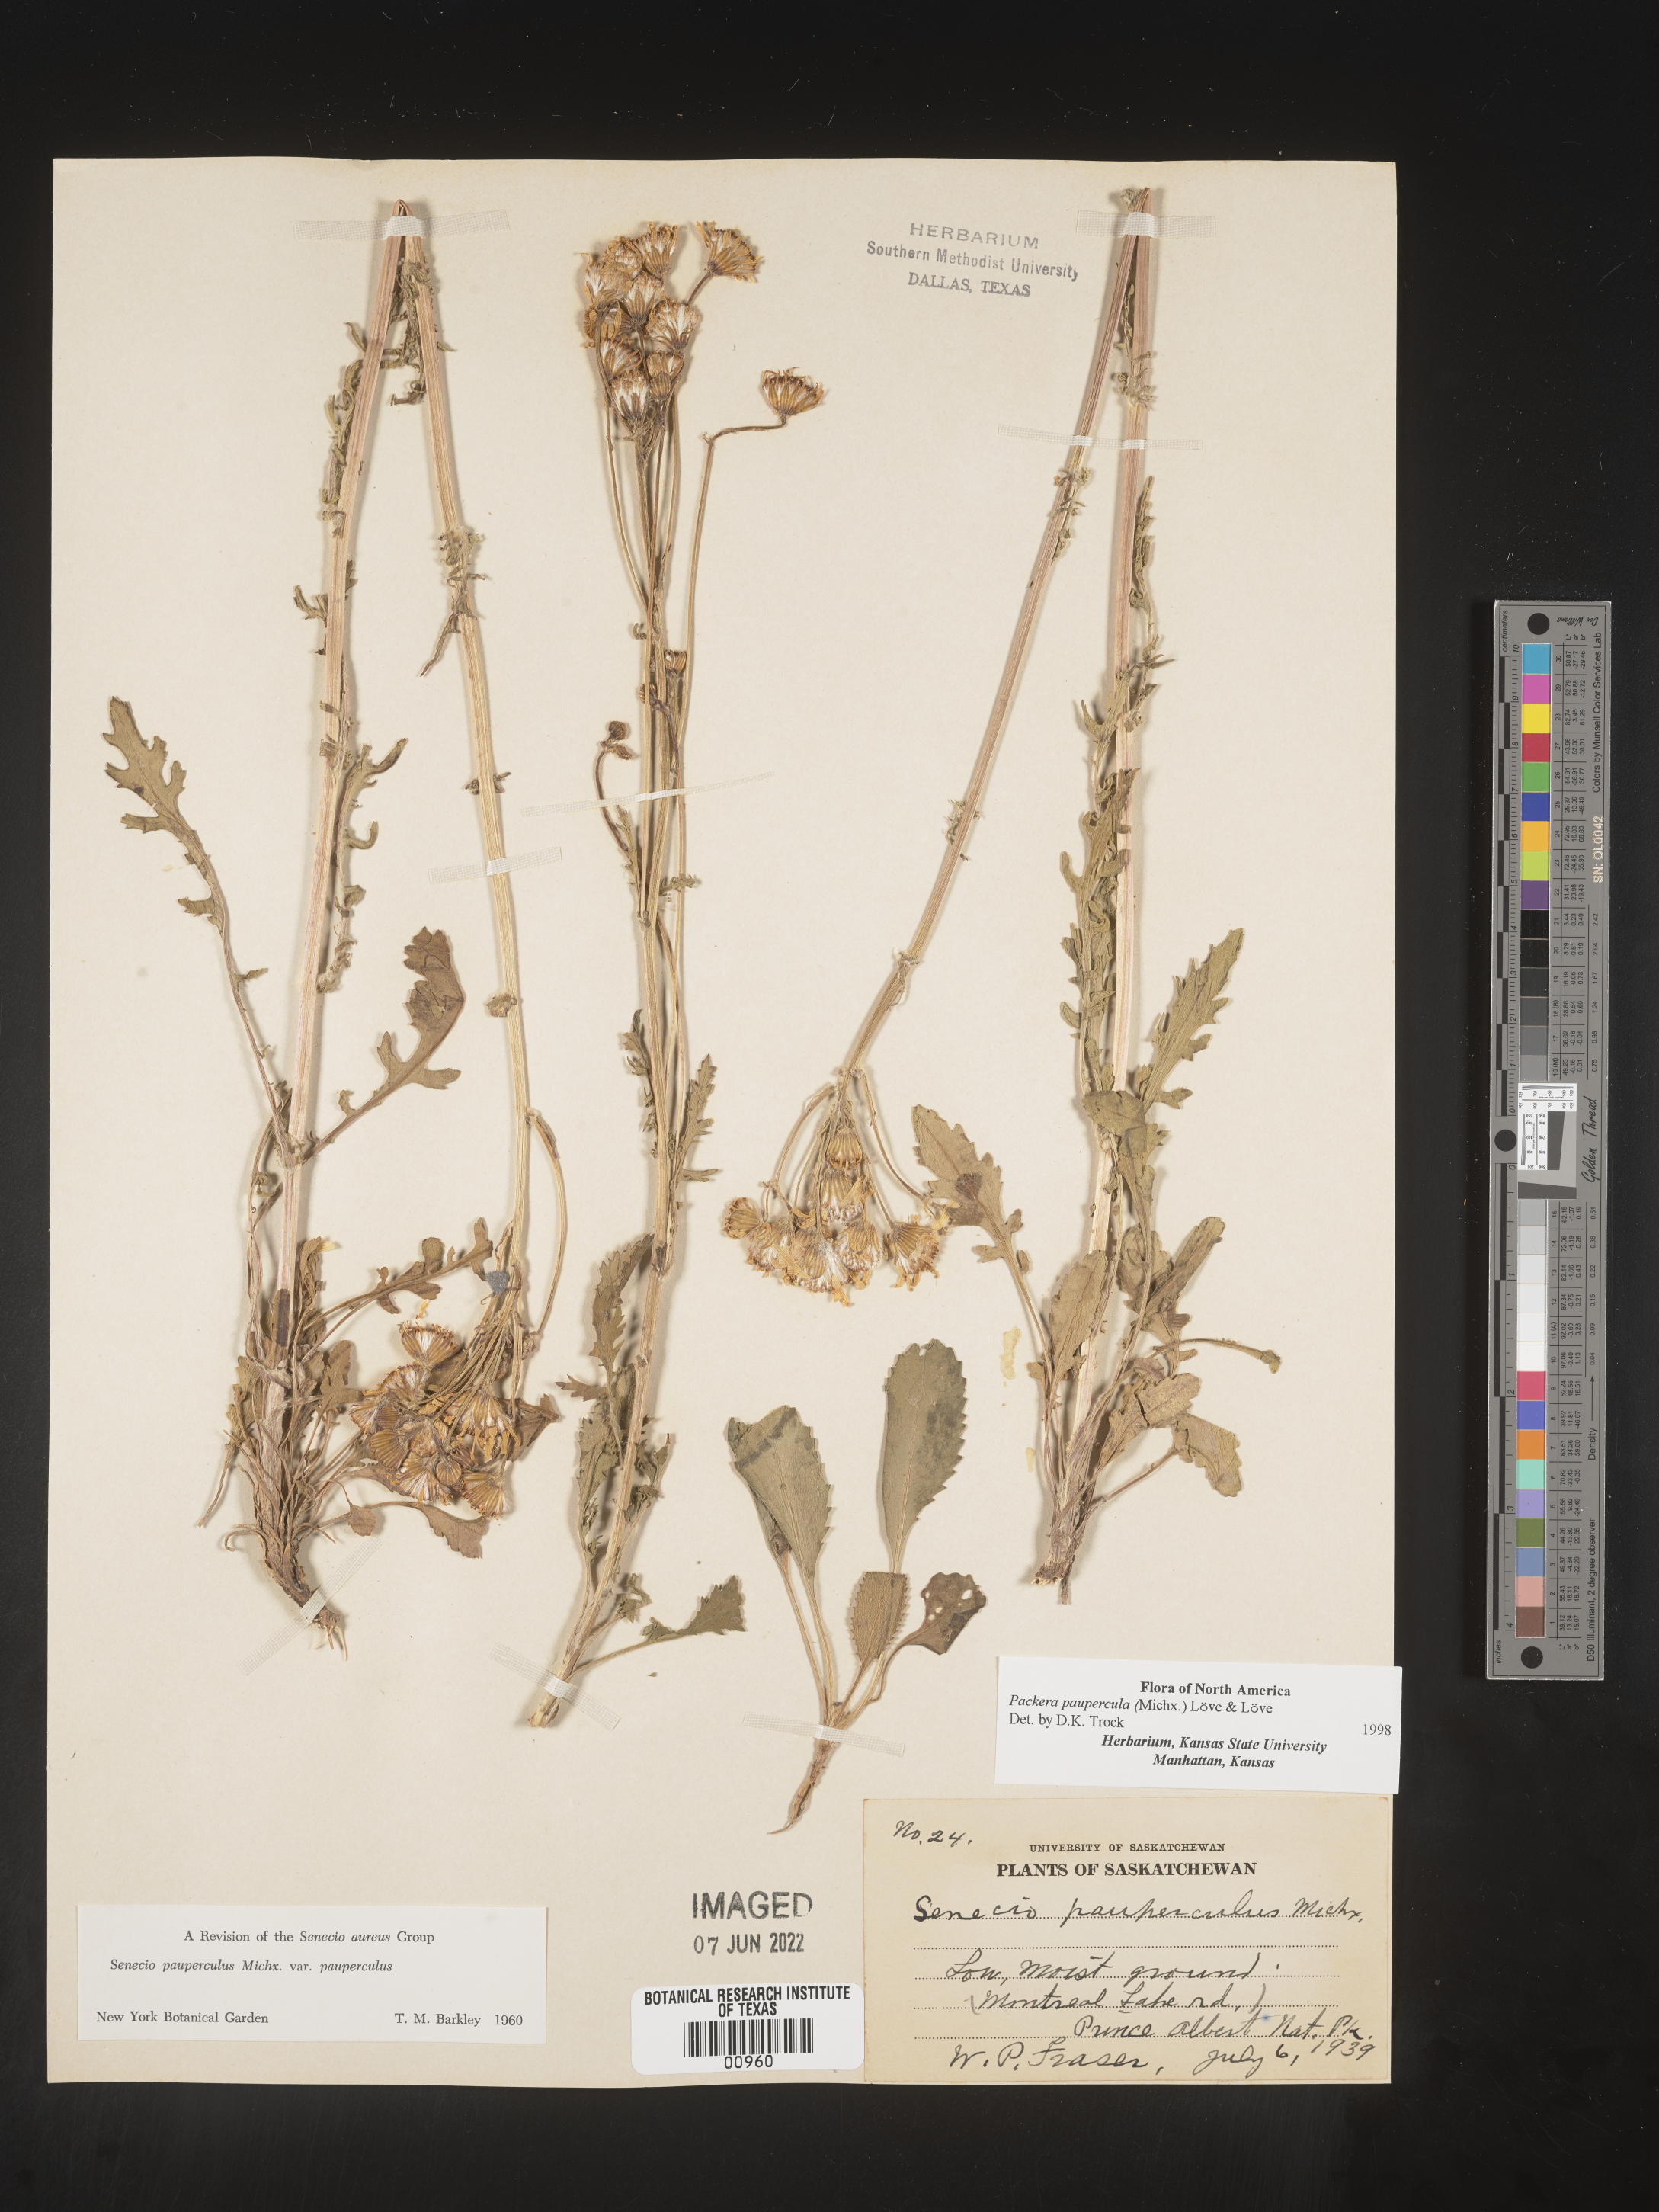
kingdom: Plantae
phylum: Tracheophyta
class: Magnoliopsida
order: Asterales
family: Asteraceae
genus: Packera
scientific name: Packera paupercula
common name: Balsam groundsel
